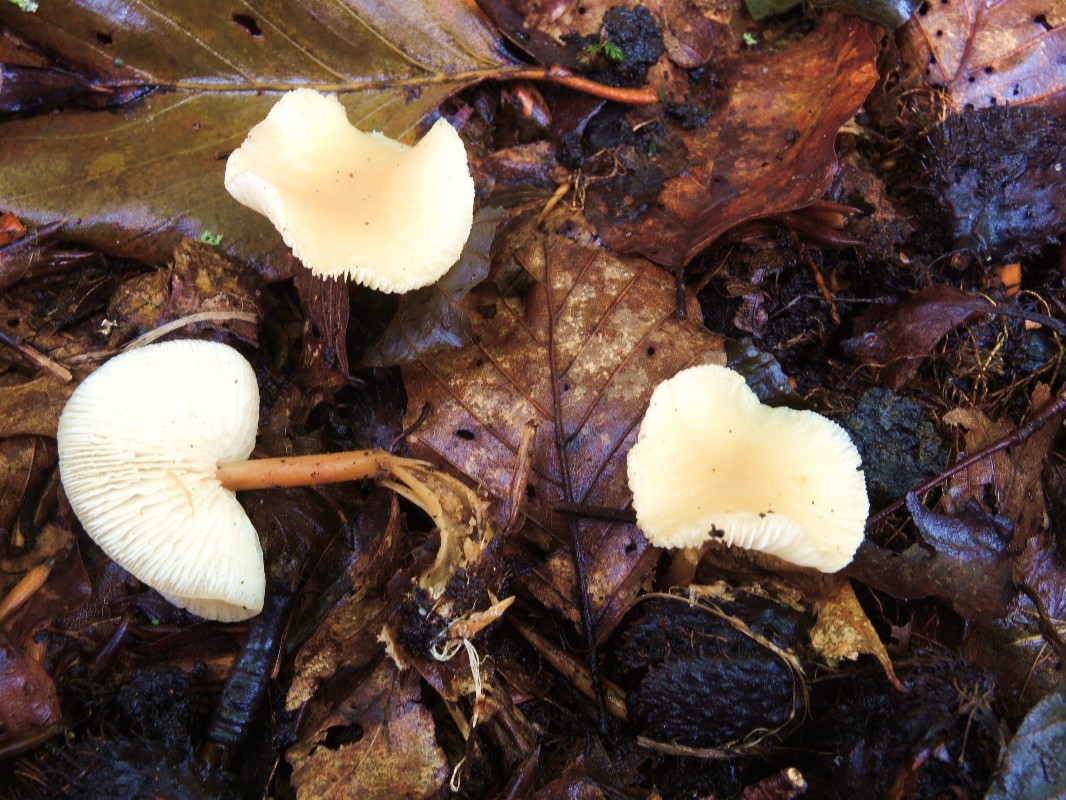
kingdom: Fungi
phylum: Basidiomycota
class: Agaricomycetes
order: Agaricales
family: Omphalotaceae
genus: Gymnopus
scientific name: Gymnopus dryophilus
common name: løv-fladhat
